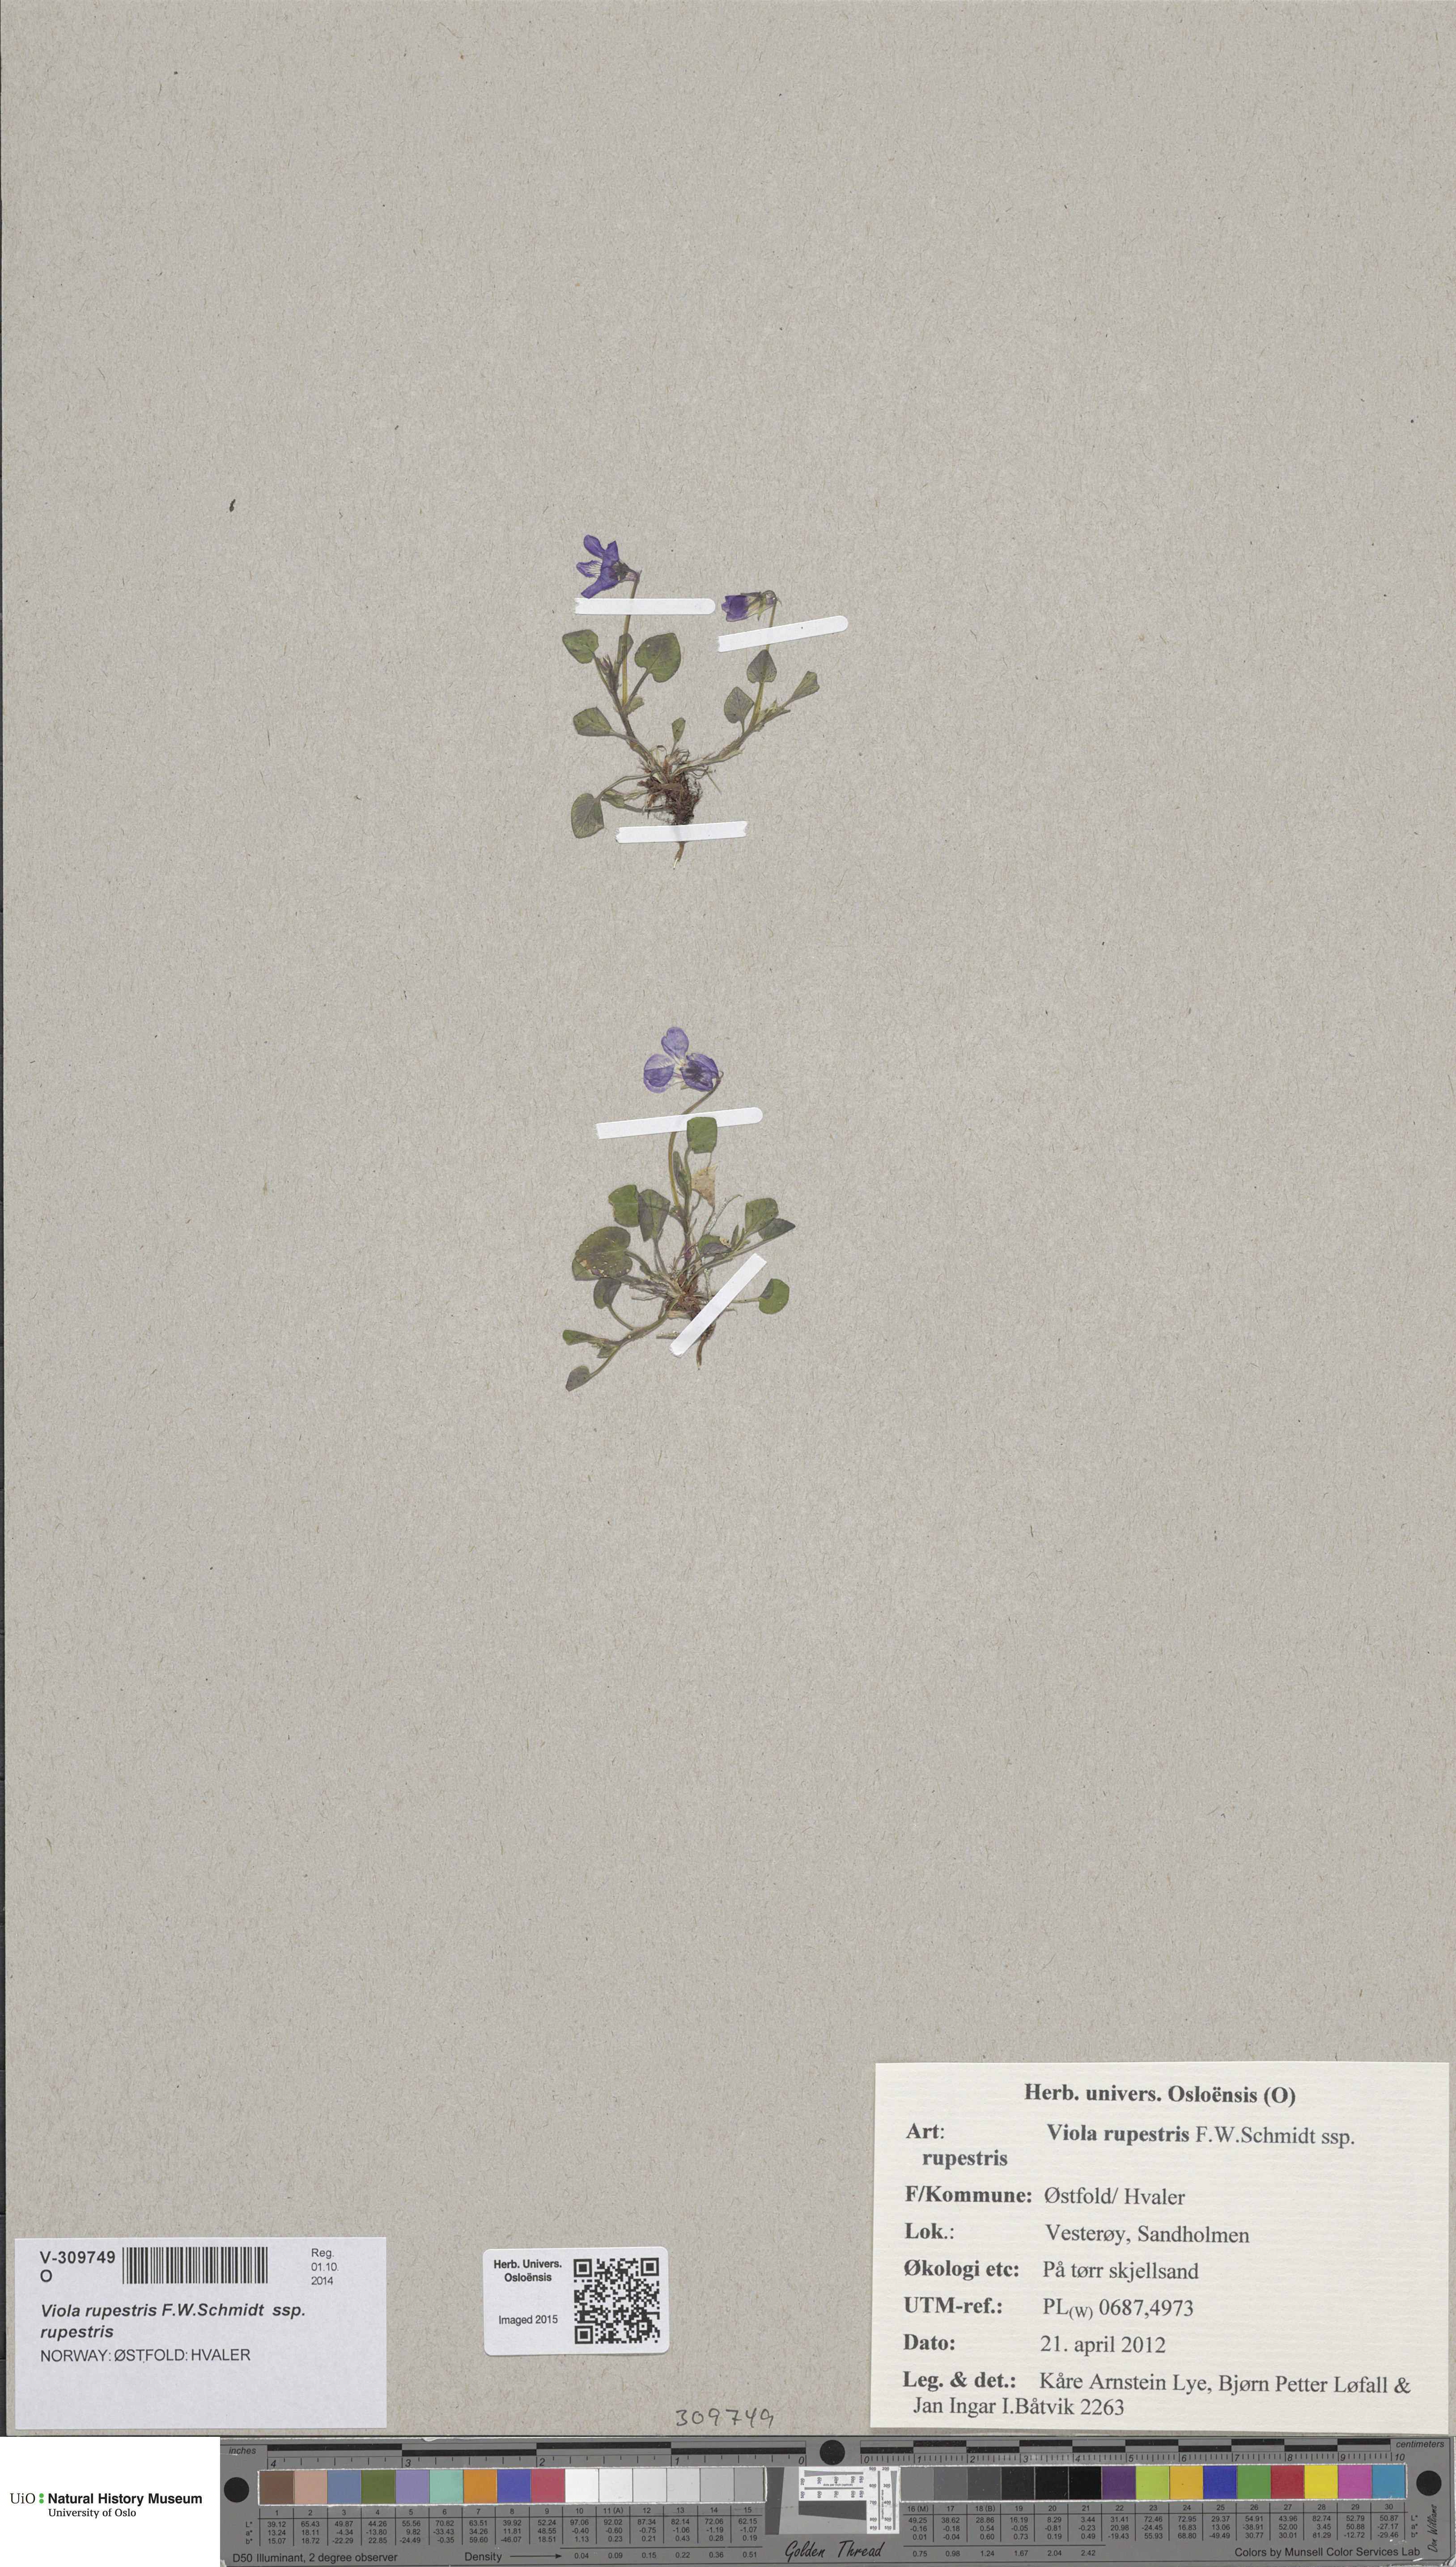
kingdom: Plantae
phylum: Tracheophyta
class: Magnoliopsida
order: Malpighiales
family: Violaceae
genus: Viola
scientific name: Viola rupestris
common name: Teesdale violet
